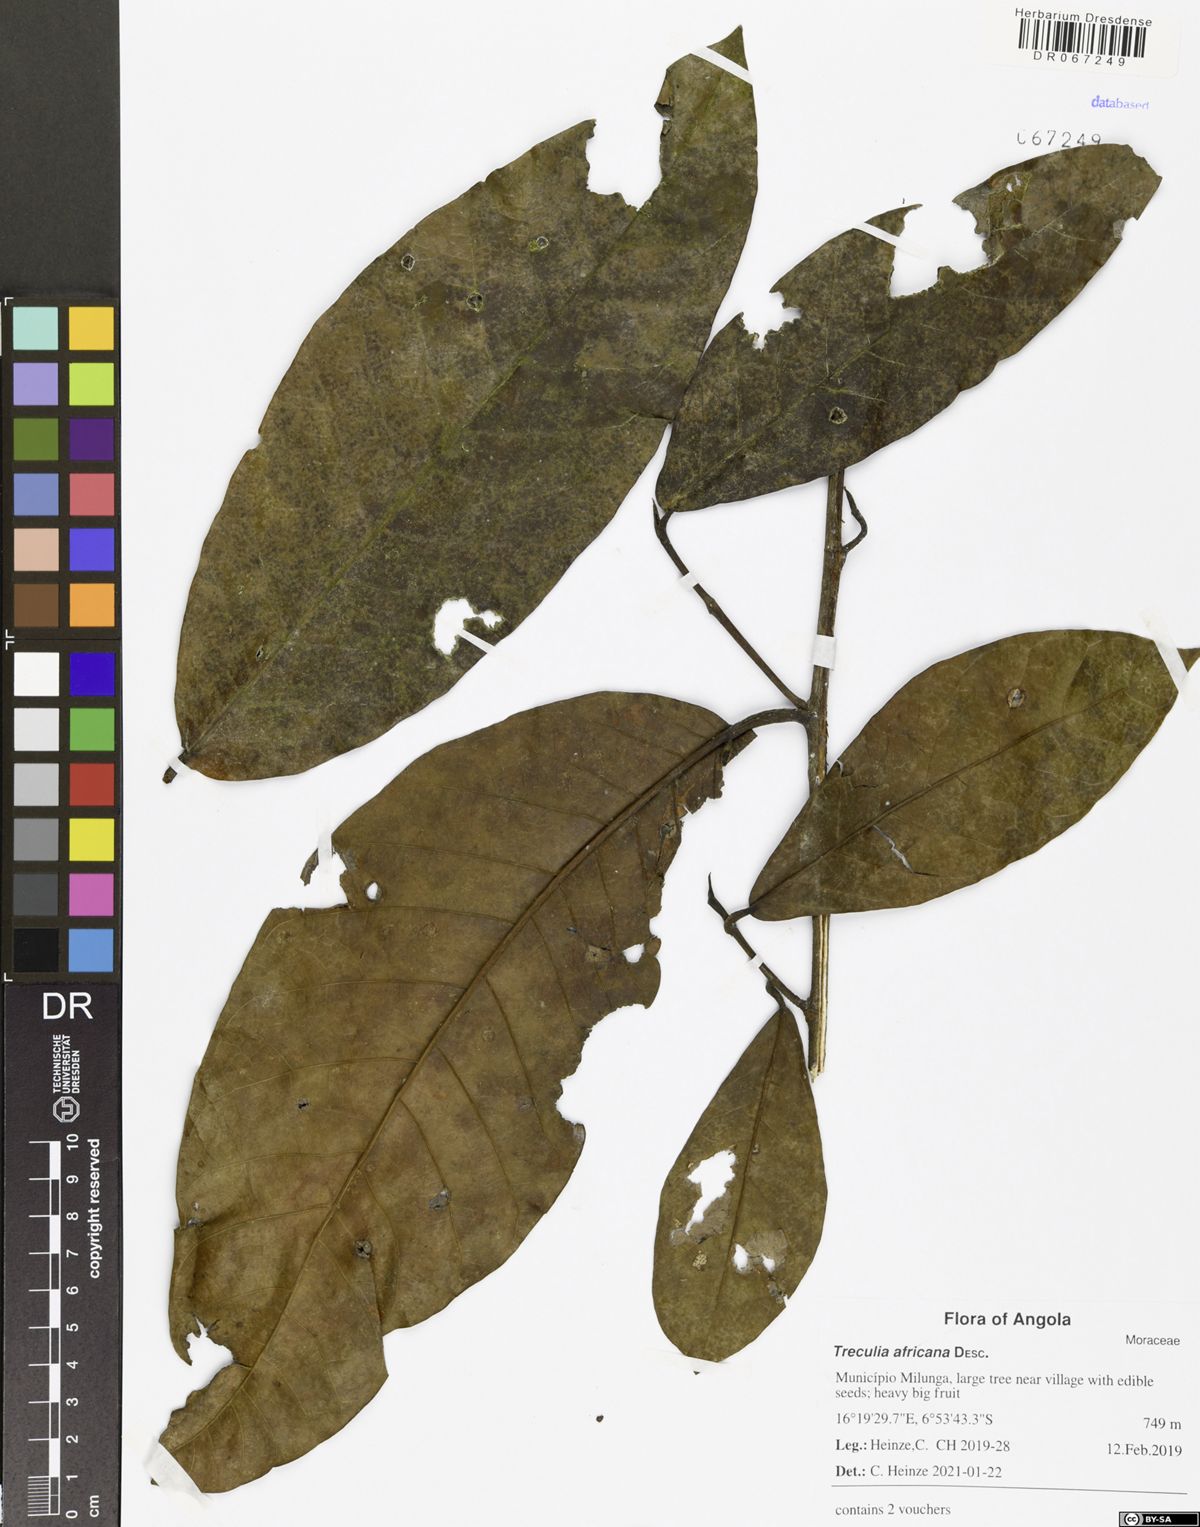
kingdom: Plantae
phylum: Tracheophyta
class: Magnoliopsida
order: Rosales
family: Moraceae
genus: Treculia
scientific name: Treculia africana
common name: African breadfruit
